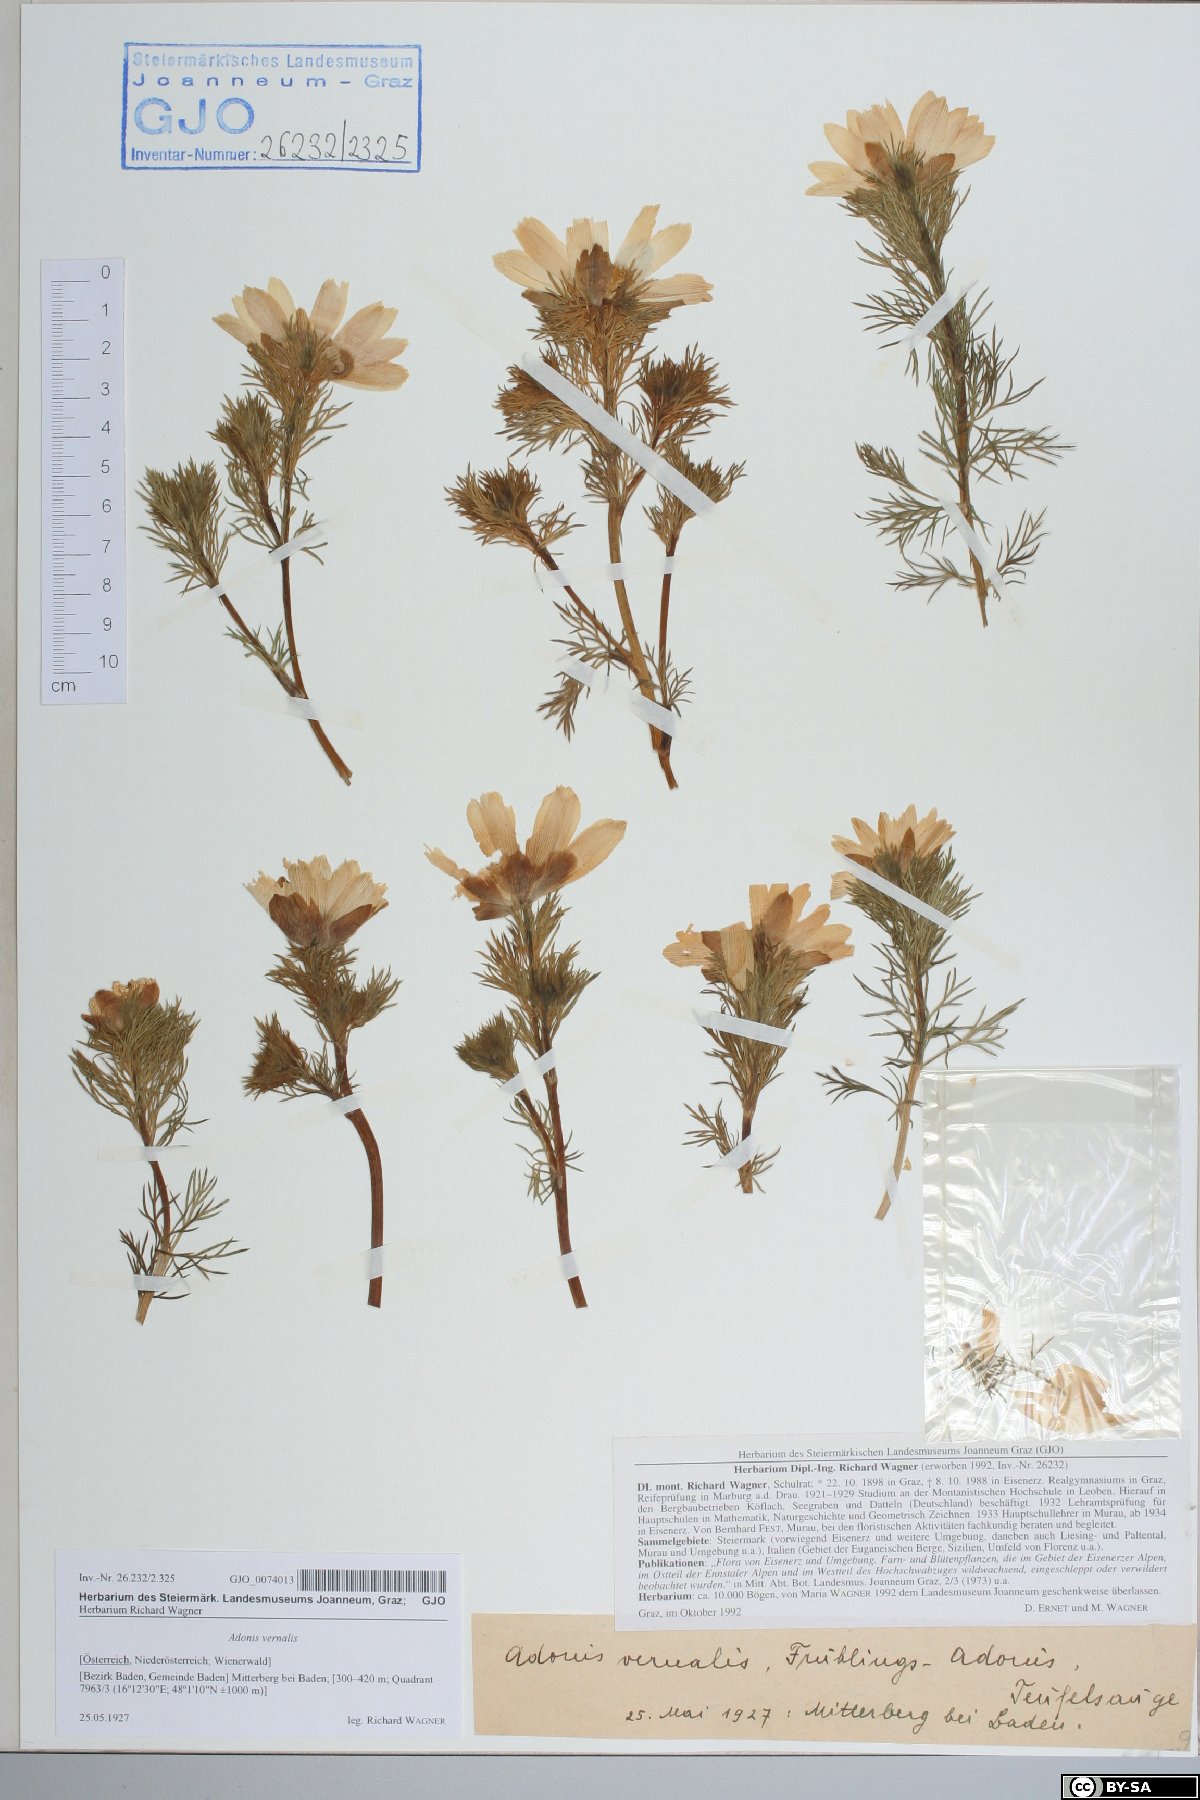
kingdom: Plantae
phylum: Tracheophyta
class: Magnoliopsida
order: Ranunculales
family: Ranunculaceae
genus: Adonis
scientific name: Adonis vernalis
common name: Yellow pheasants-eye
